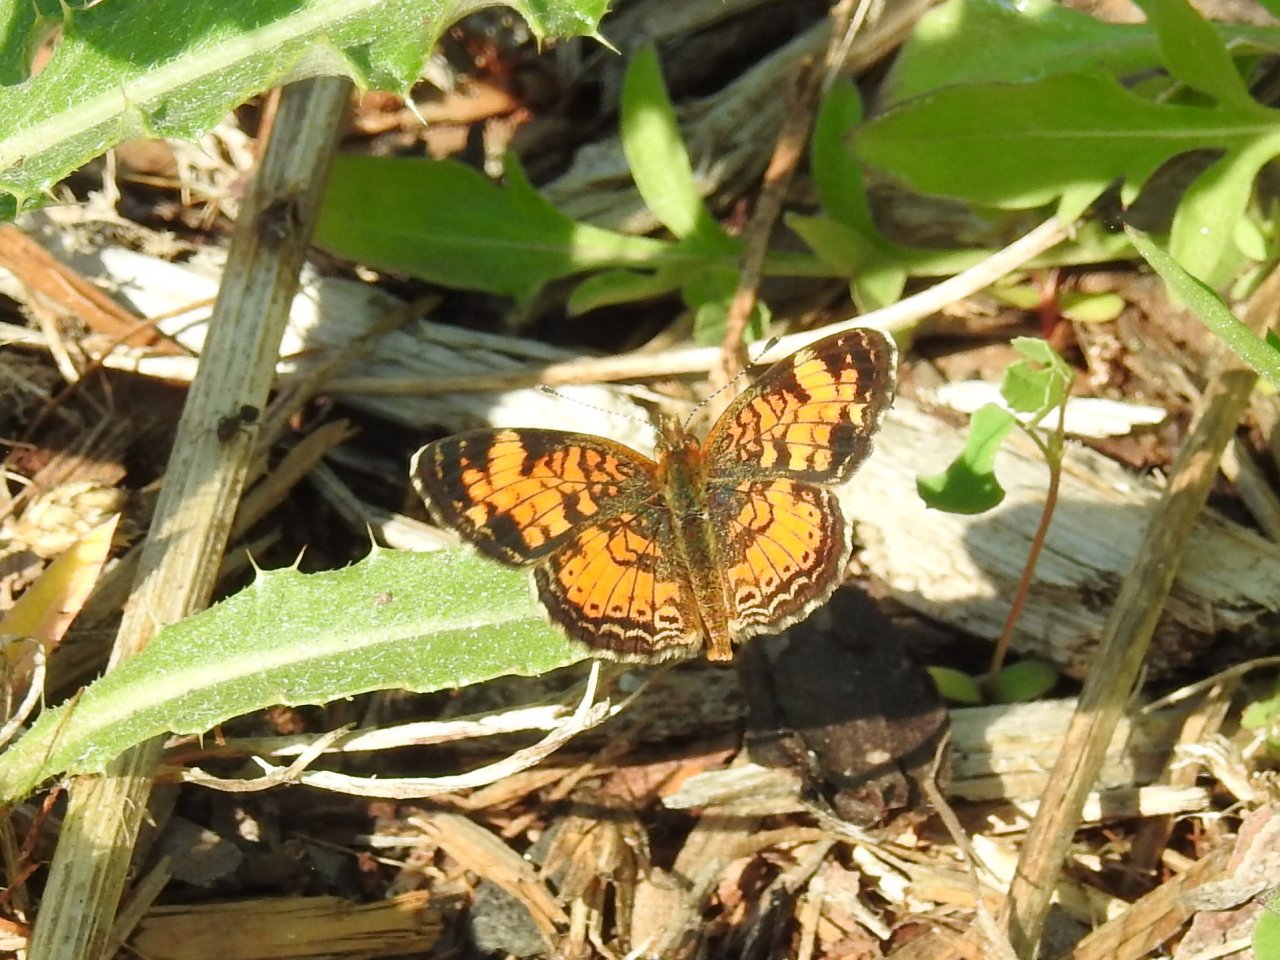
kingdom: Animalia
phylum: Arthropoda
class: Insecta
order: Lepidoptera
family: Nymphalidae
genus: Phyciodes
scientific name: Phyciodes tharos
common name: Northern Crescent
